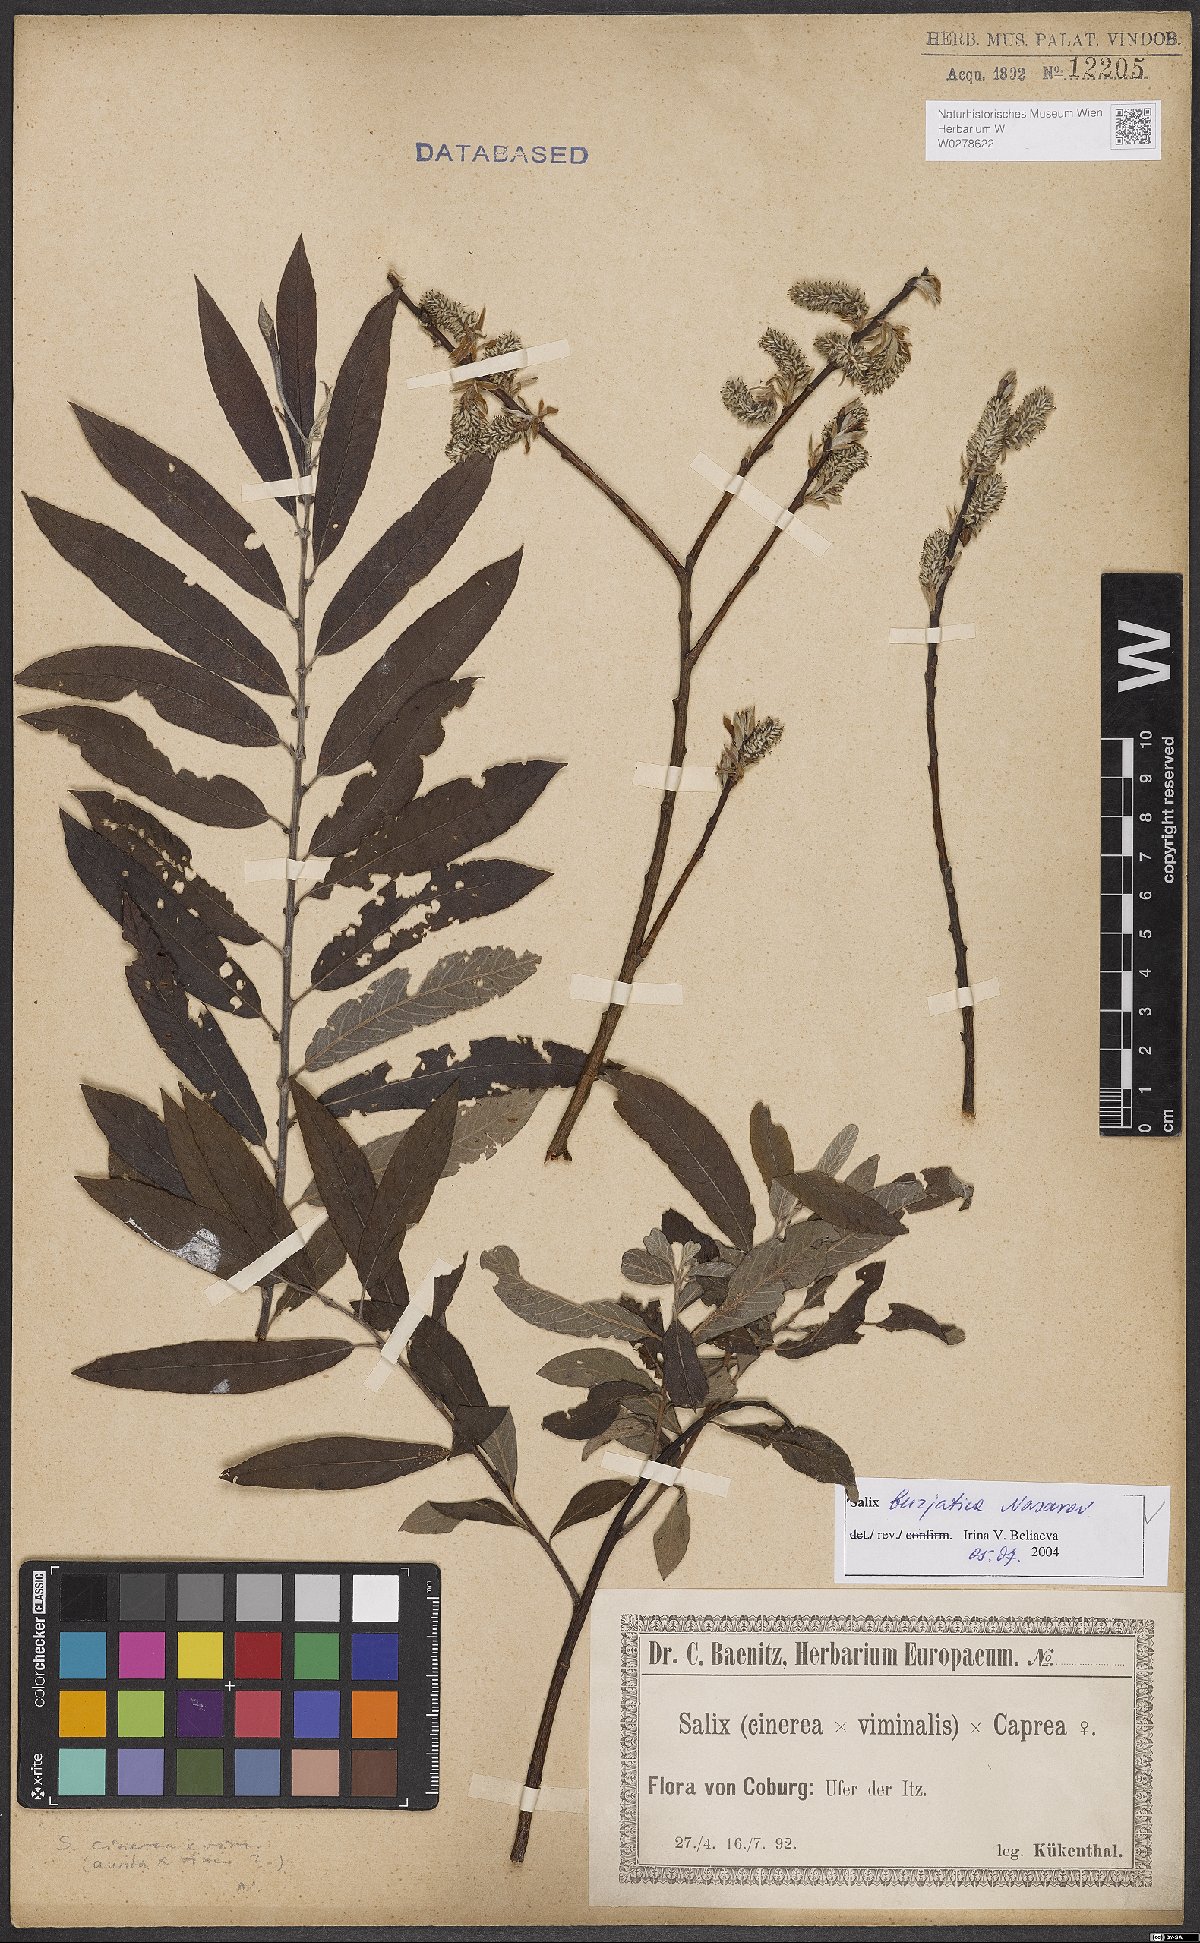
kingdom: Plantae
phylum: Tracheophyta
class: Magnoliopsida
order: Malpighiales
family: Salicaceae
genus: Salix
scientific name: Salix gmelinii
